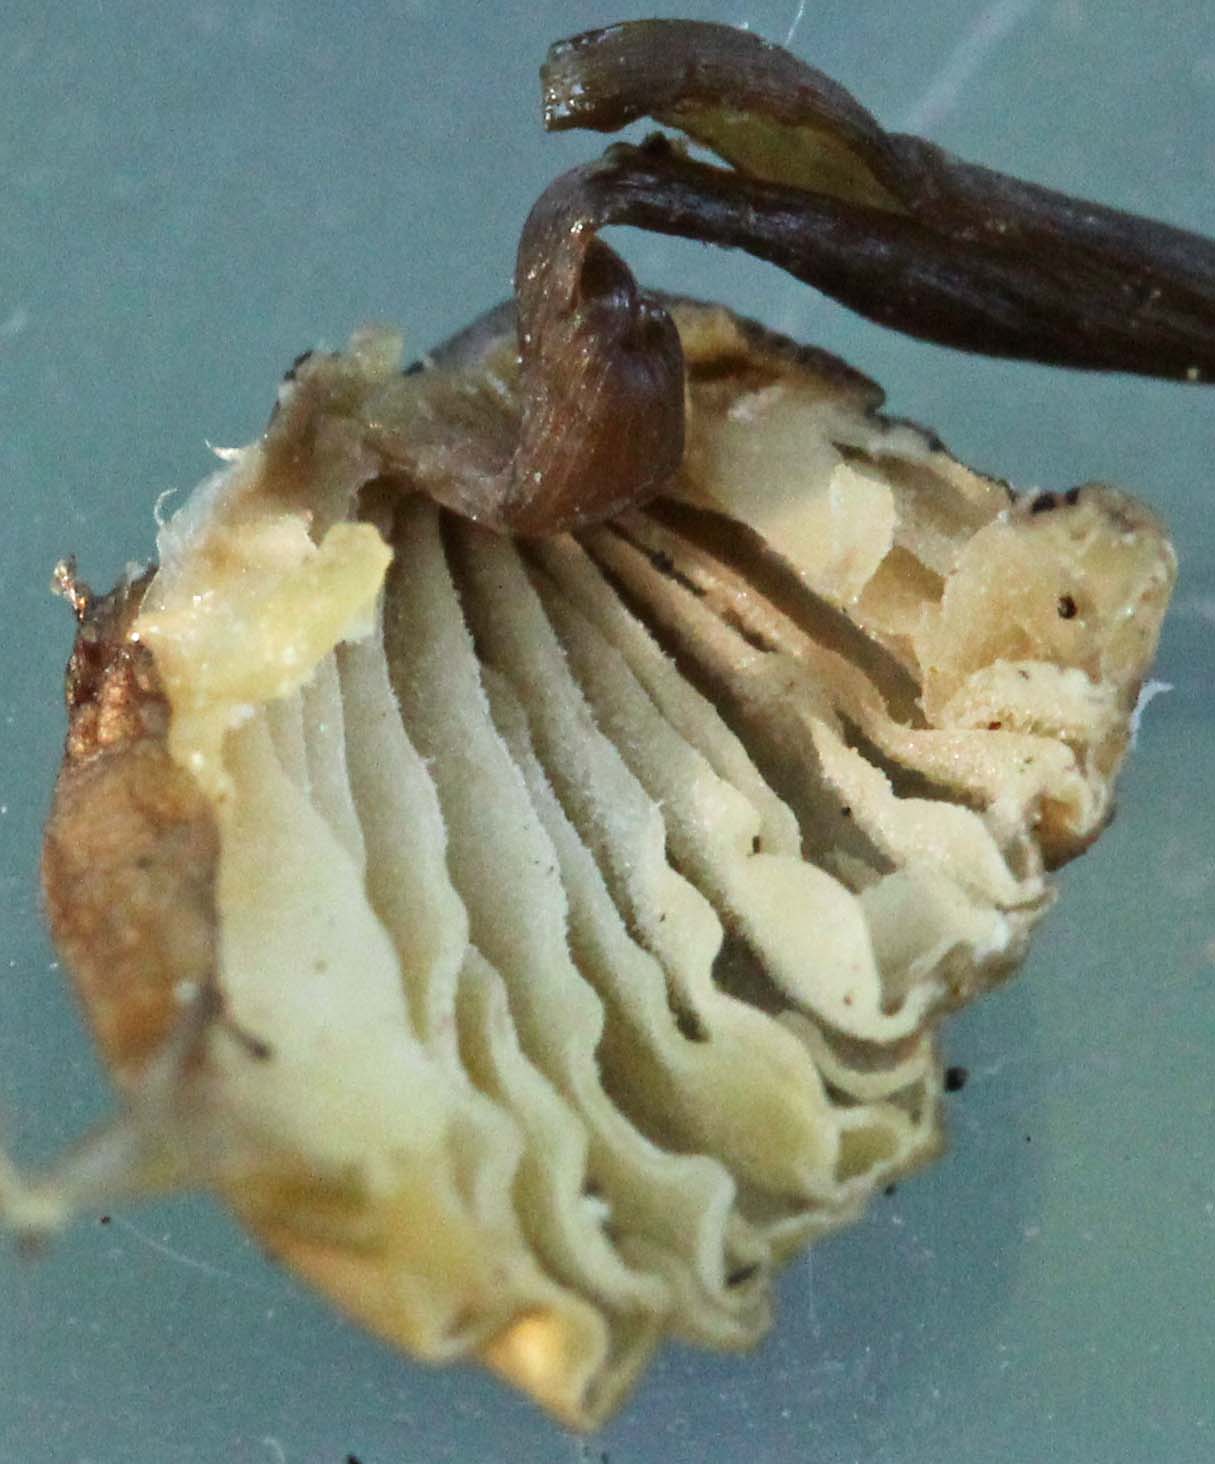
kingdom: Fungi
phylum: Basidiomycota
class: Agaricomycetes
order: Agaricales
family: Mycenaceae
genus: Mycena
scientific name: Mycena galopus
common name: hvidmælket huesvamp
